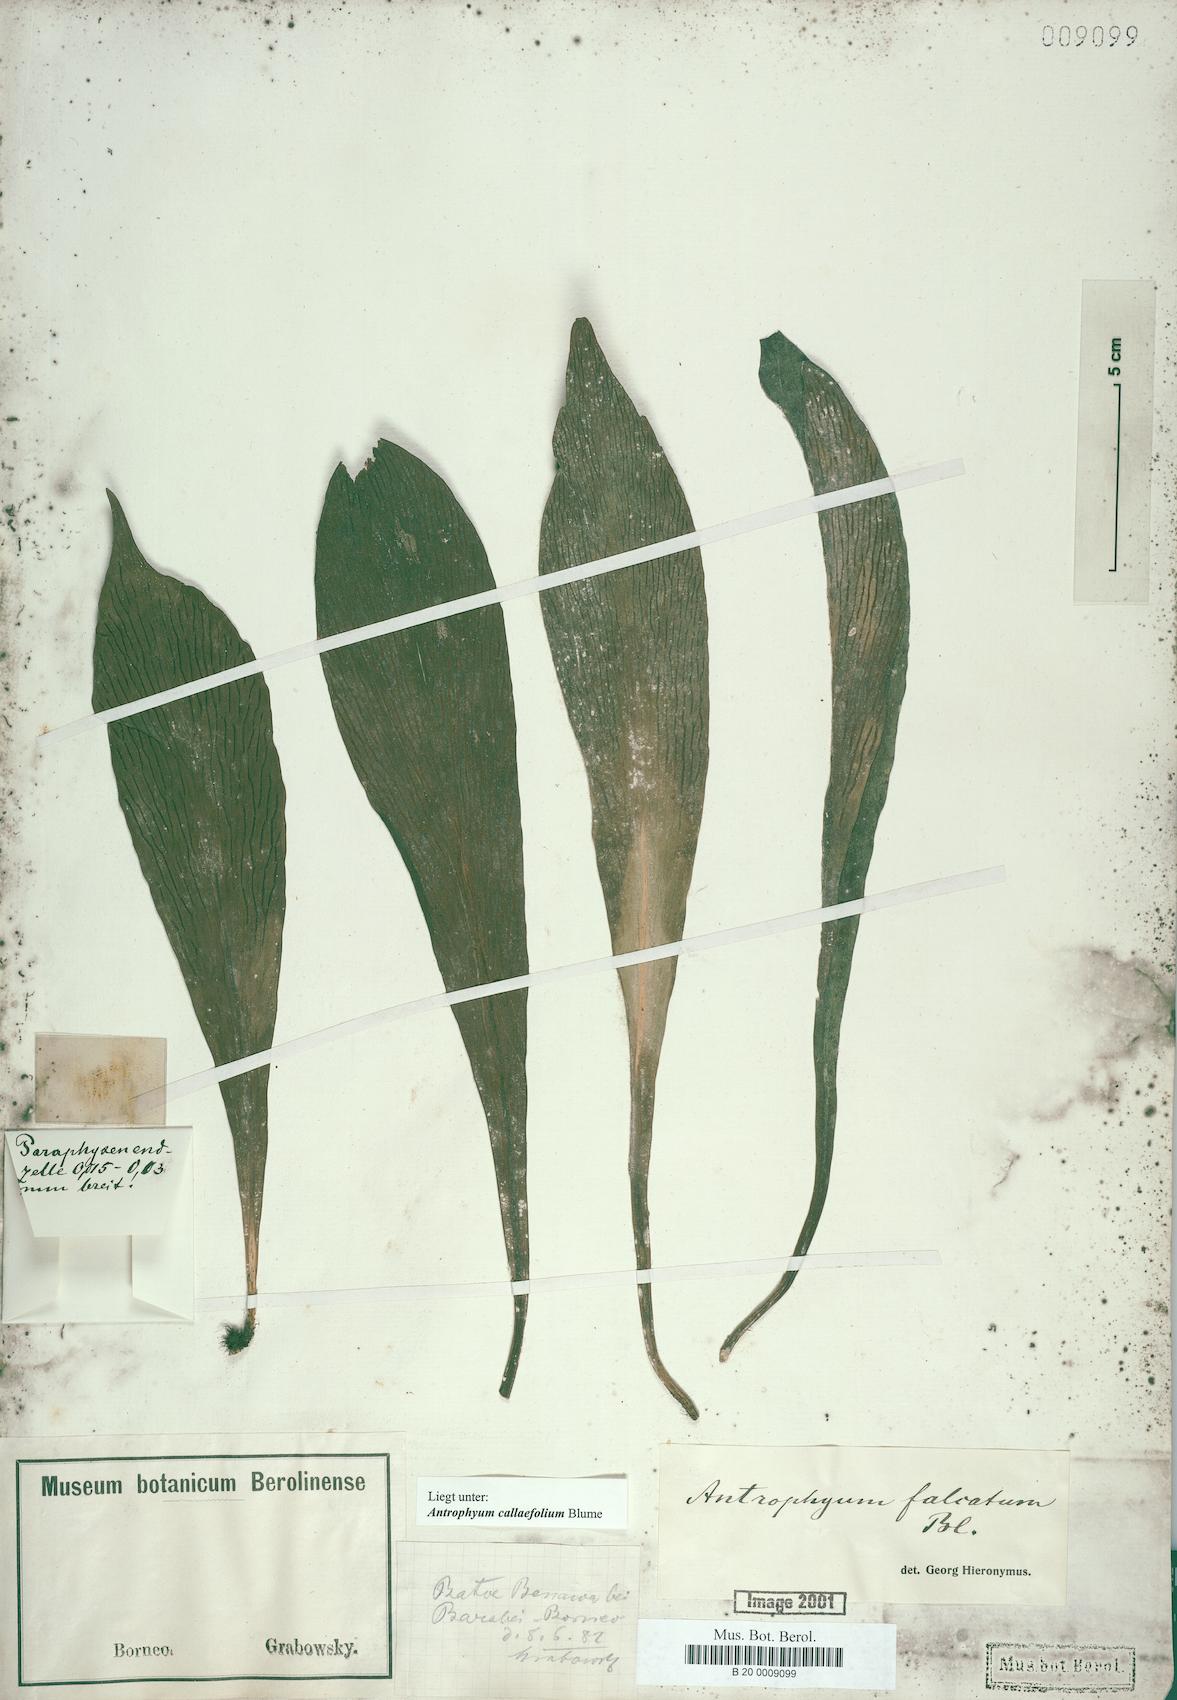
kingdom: Plantae
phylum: Tracheophyta
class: Polypodiopsida
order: Polypodiales
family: Pteridaceae
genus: Antrophyum
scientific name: Antrophyum callifolium
